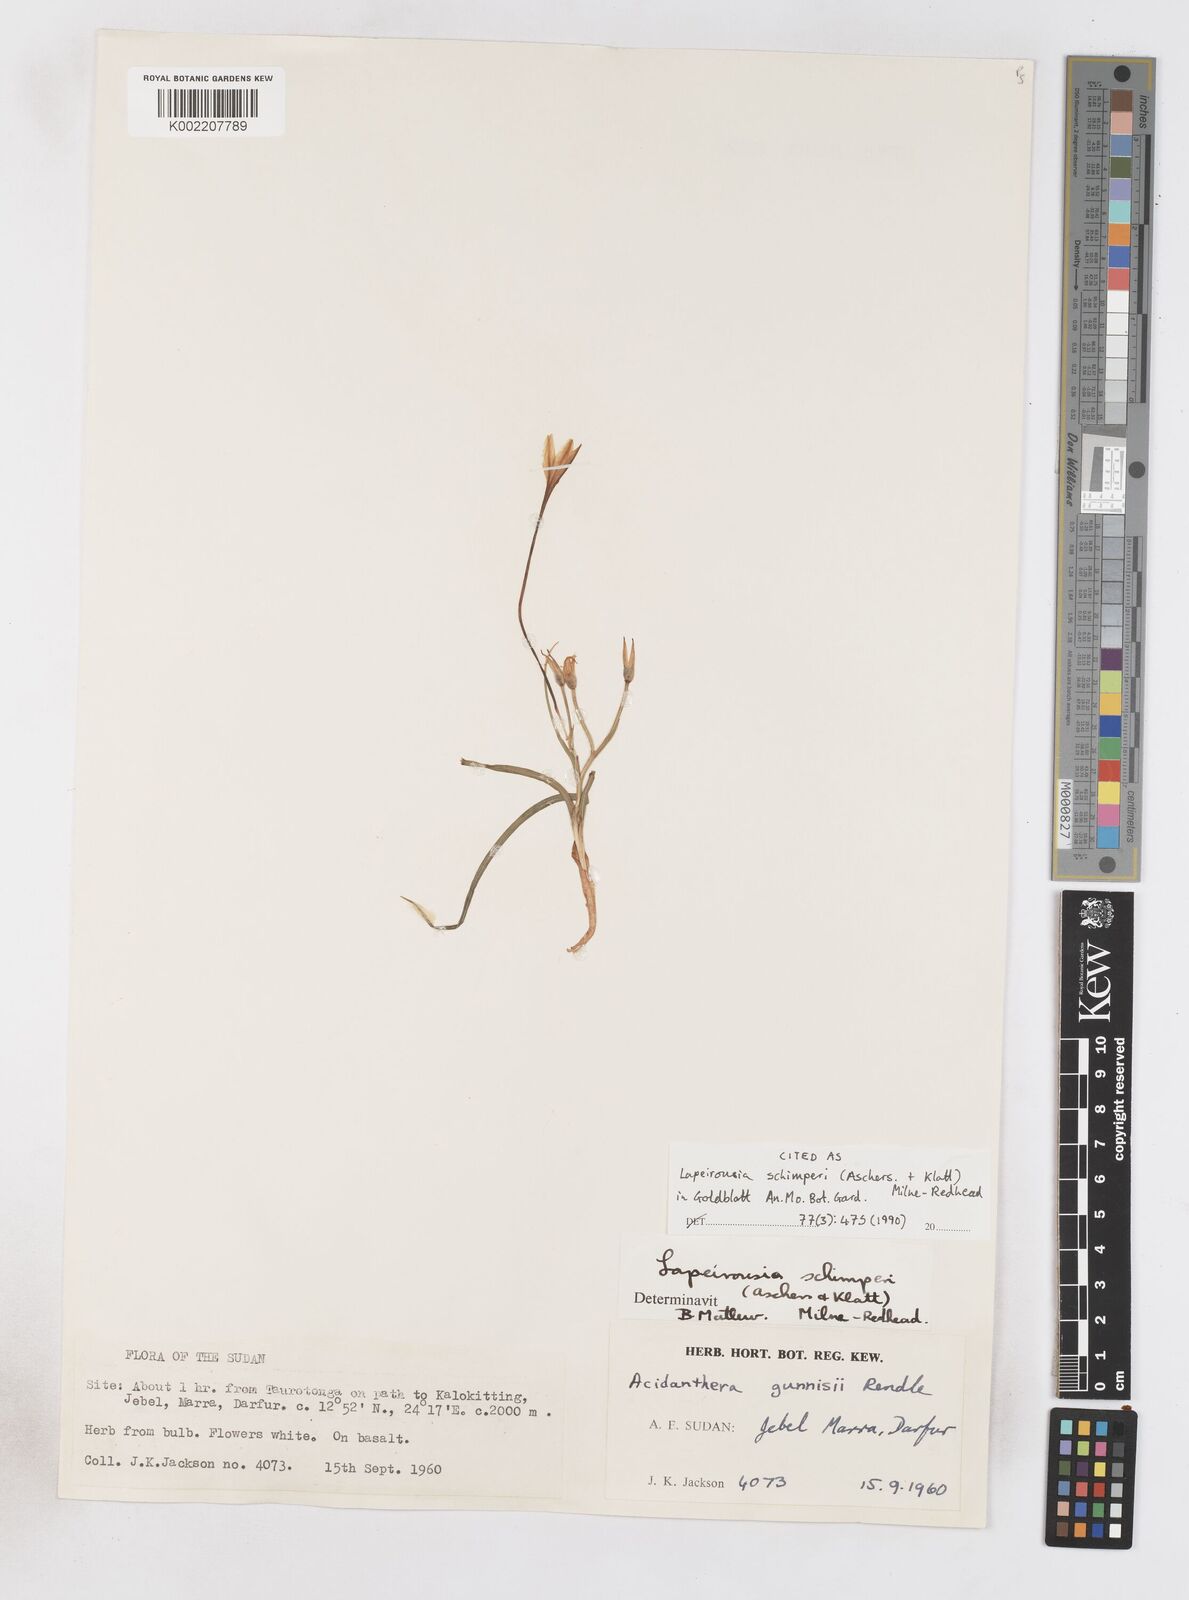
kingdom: Plantae
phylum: Tracheophyta
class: Liliopsida
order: Asparagales
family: Iridaceae
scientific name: Iridaceae
